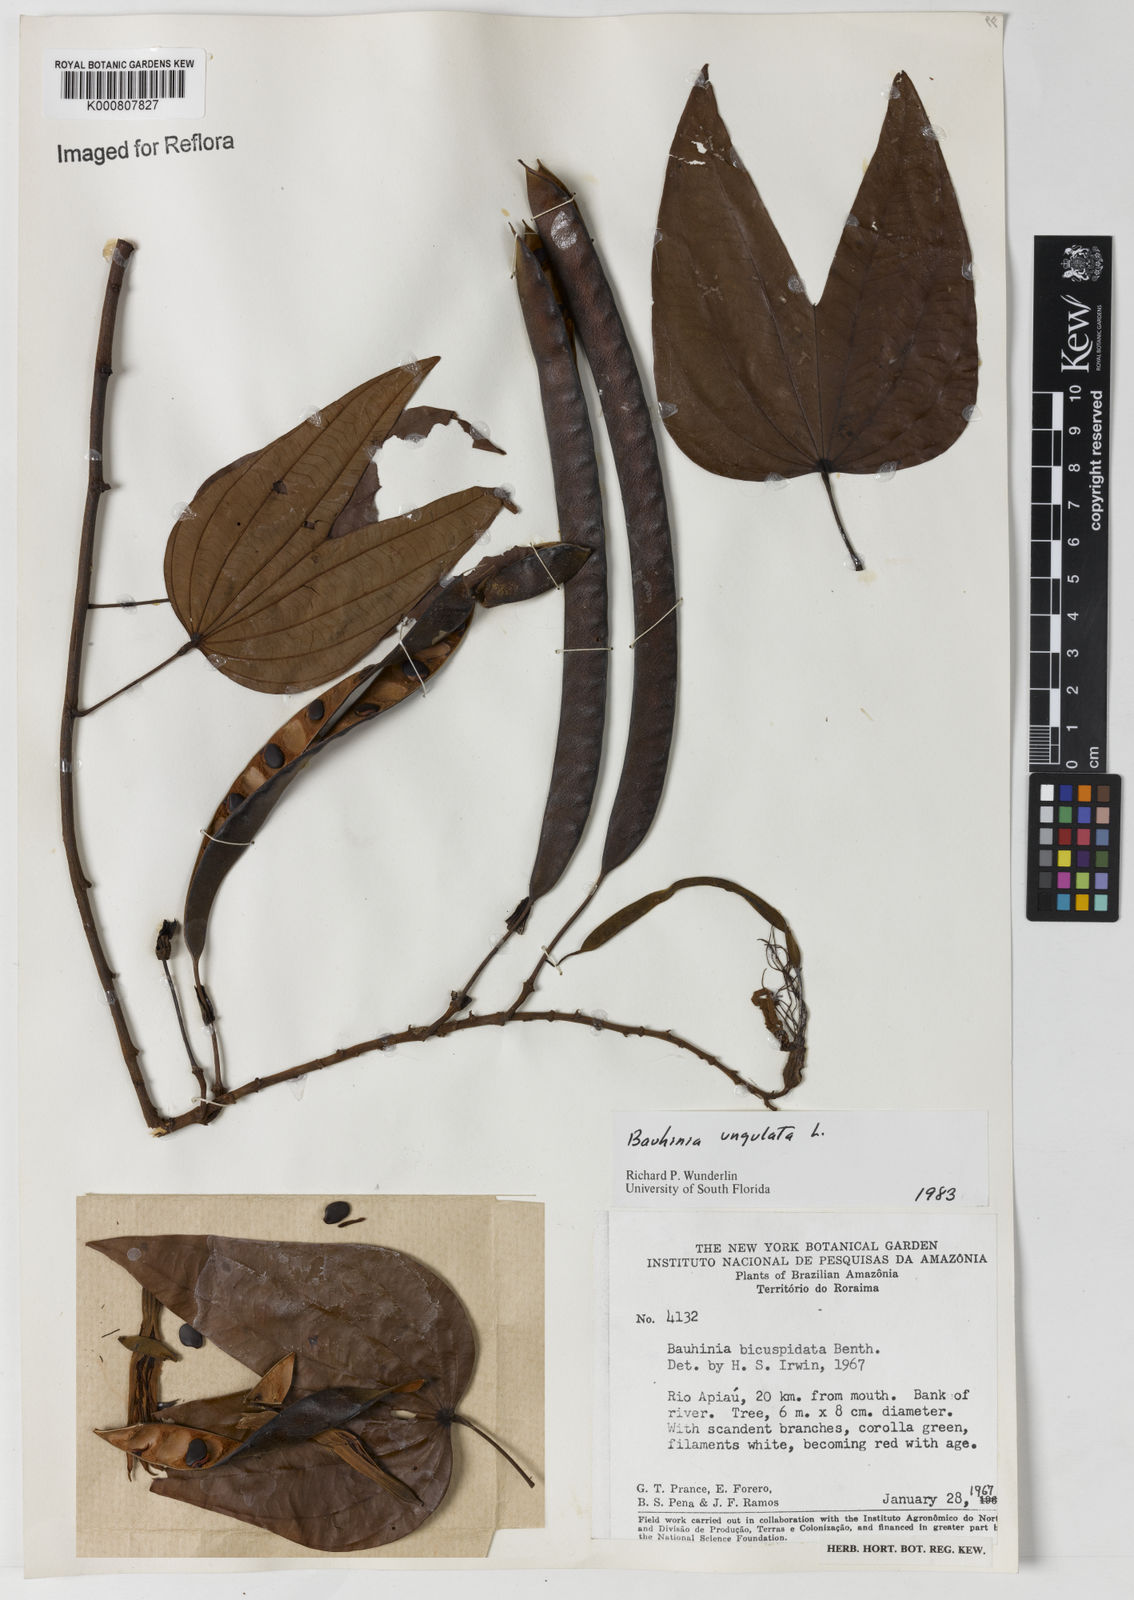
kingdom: Plantae
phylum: Tracheophyta
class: Magnoliopsida
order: Fabales
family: Fabaceae
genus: Bauhinia
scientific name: Bauhinia ungulata
